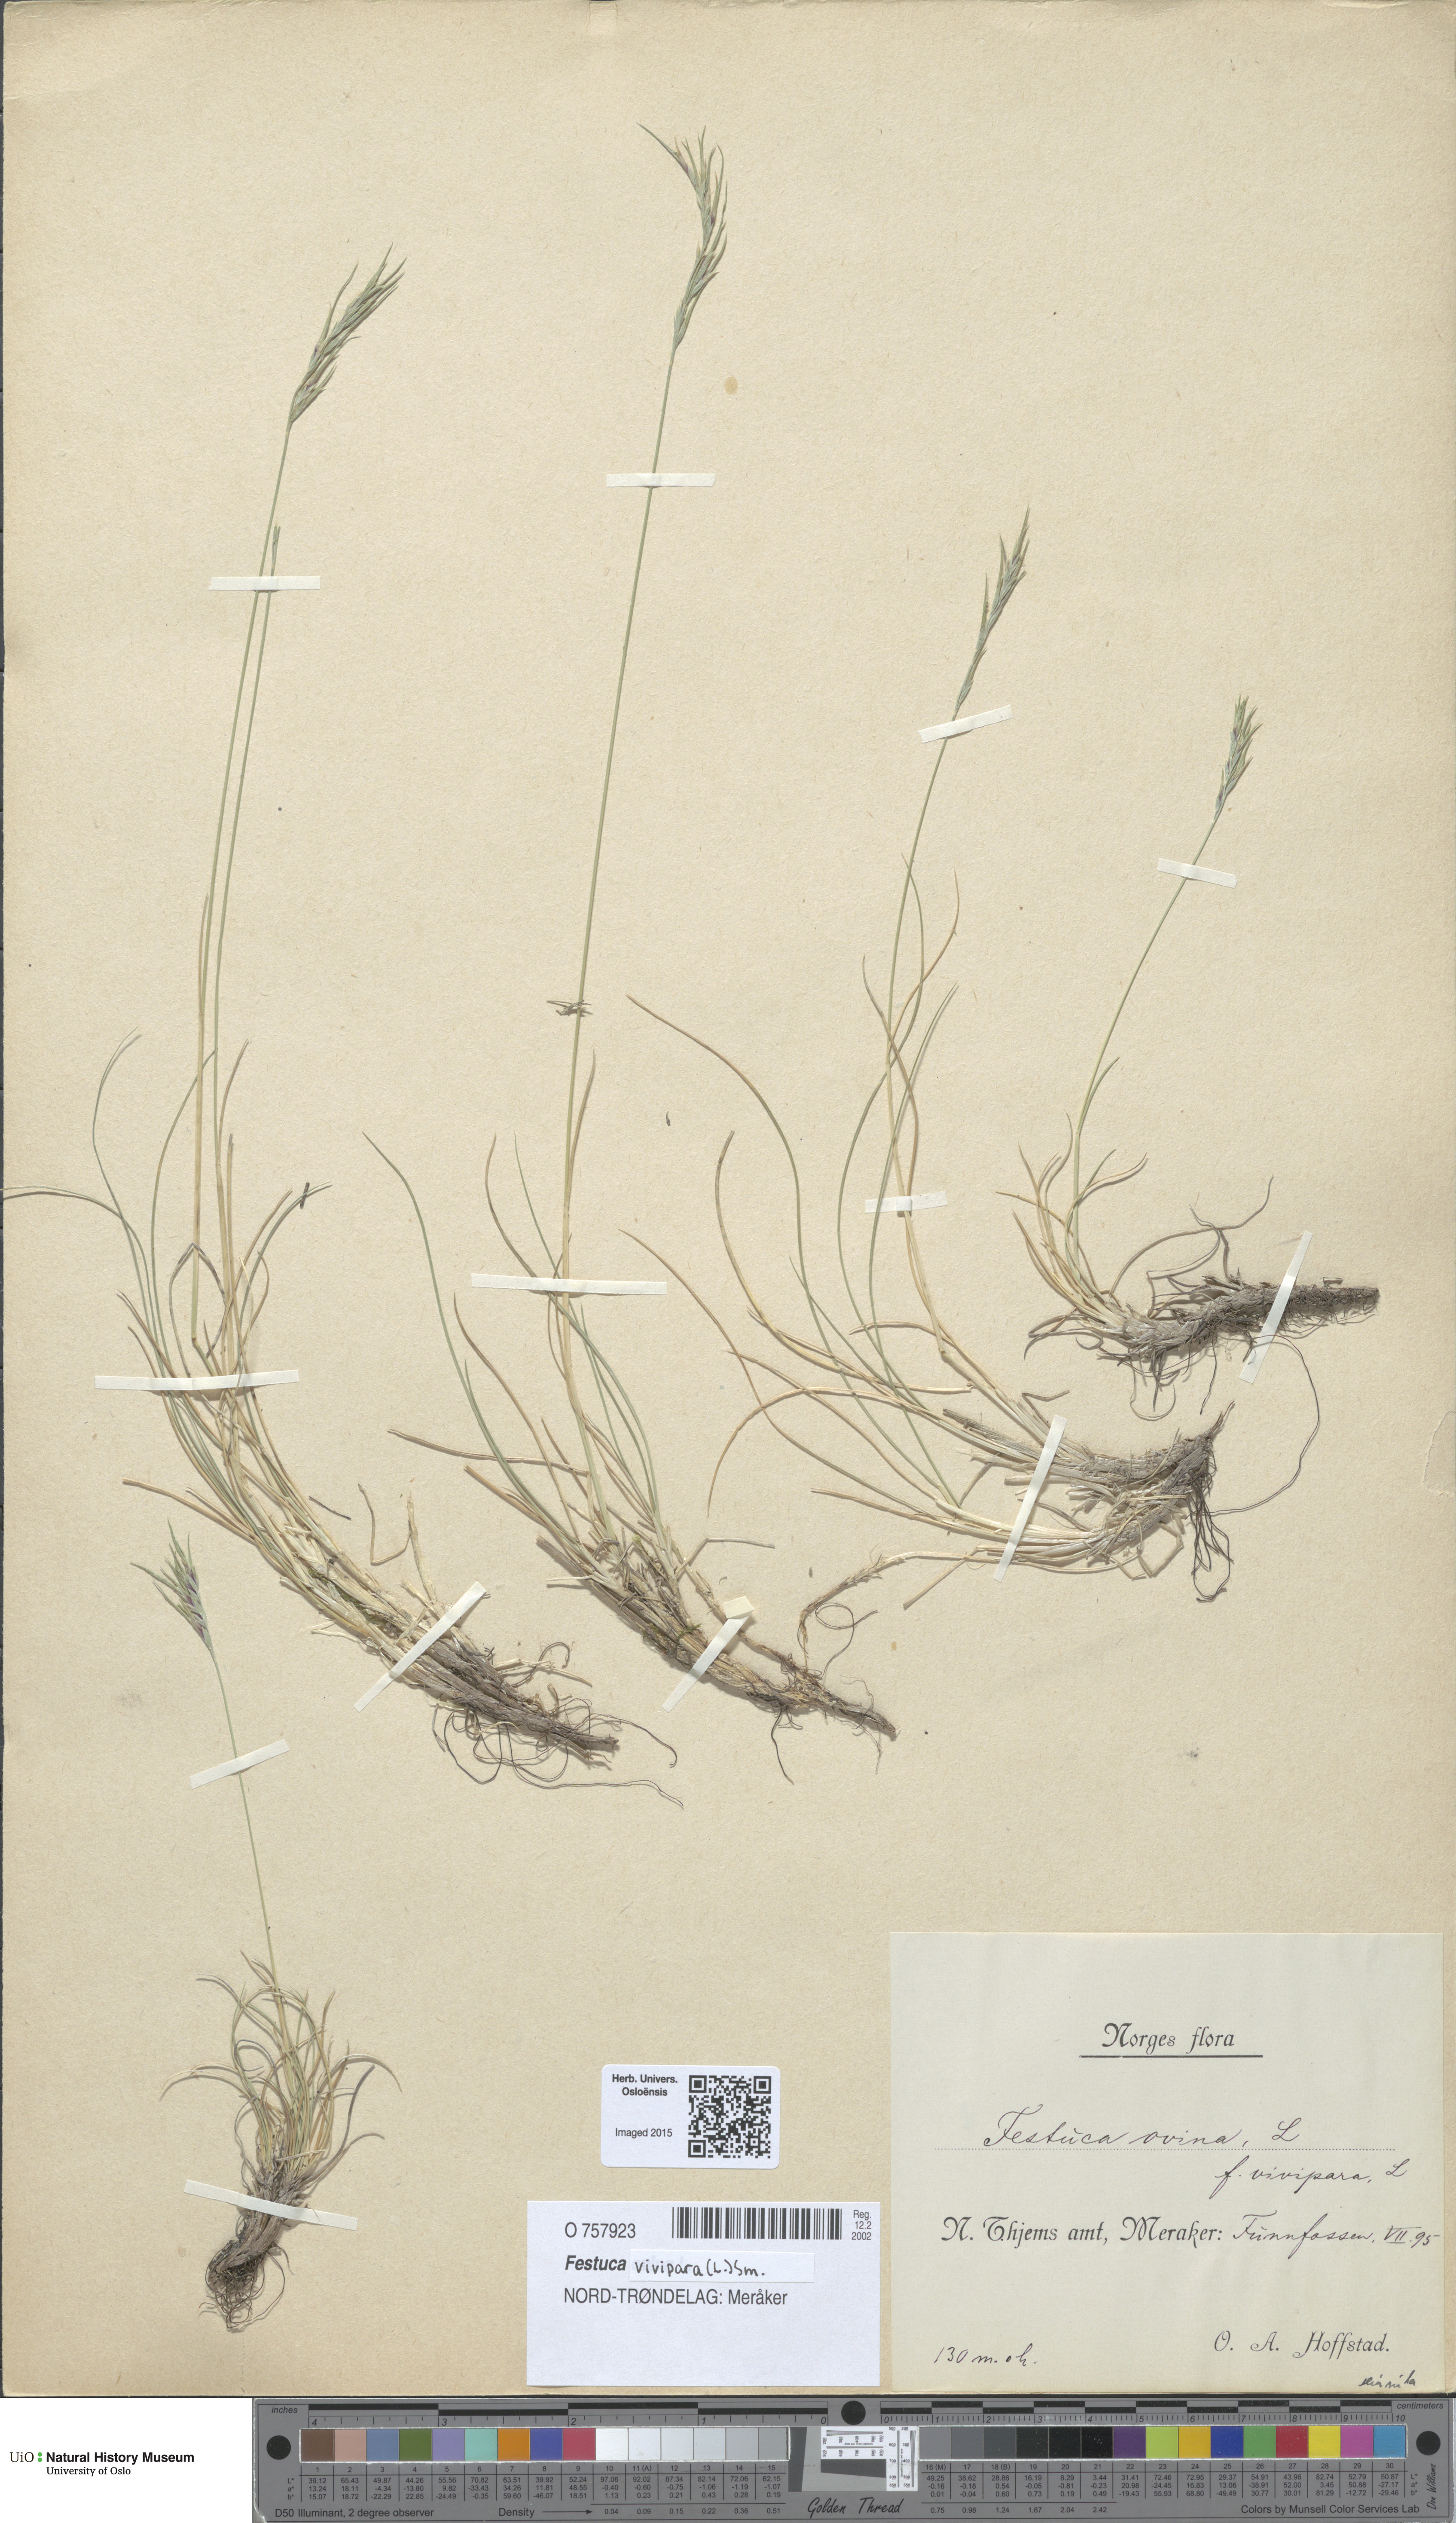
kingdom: Plantae
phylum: Tracheophyta
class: Liliopsida
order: Poales
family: Poaceae
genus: Festuca
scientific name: Festuca vivipara
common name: Viviparous sheep's-fescue
